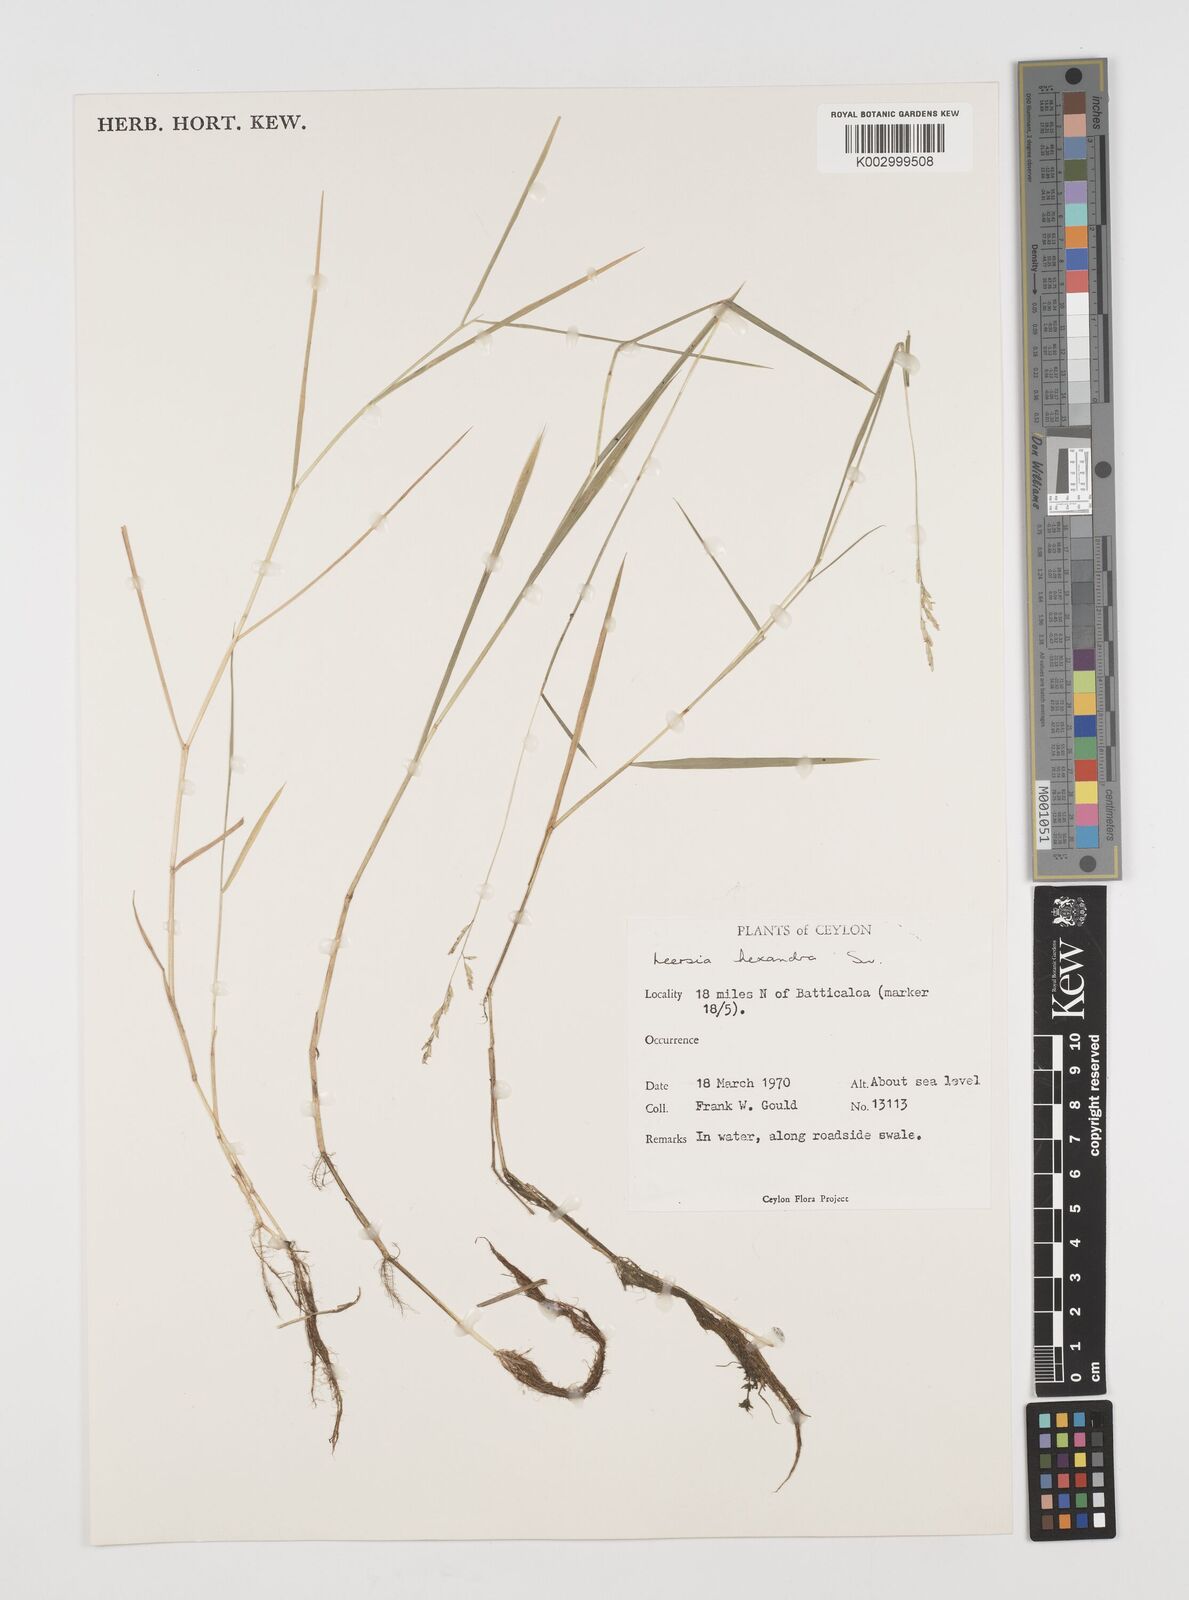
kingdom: Plantae
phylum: Tracheophyta
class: Liliopsida
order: Poales
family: Poaceae
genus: Leersia
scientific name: Leersia hexandra
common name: Southern cut grass
